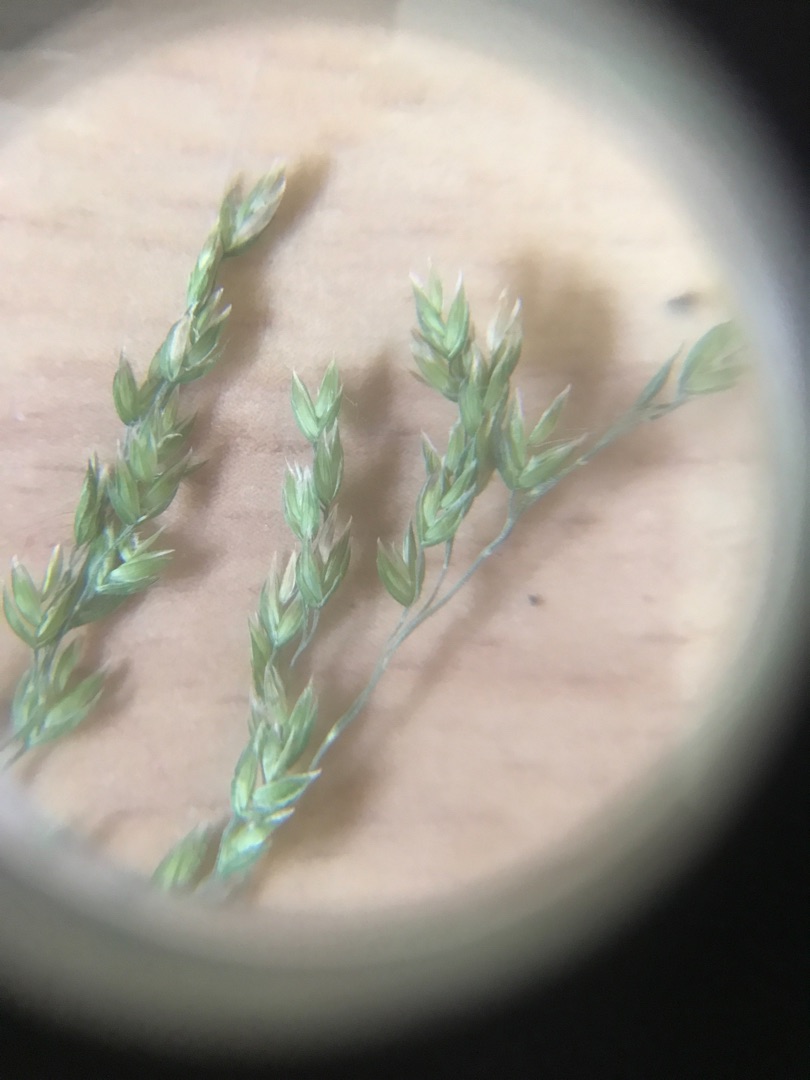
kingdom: Plantae
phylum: Tracheophyta
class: Liliopsida
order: Poales
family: Poaceae
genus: Poa
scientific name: Poa trivialis
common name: Almindelig rapgræs
